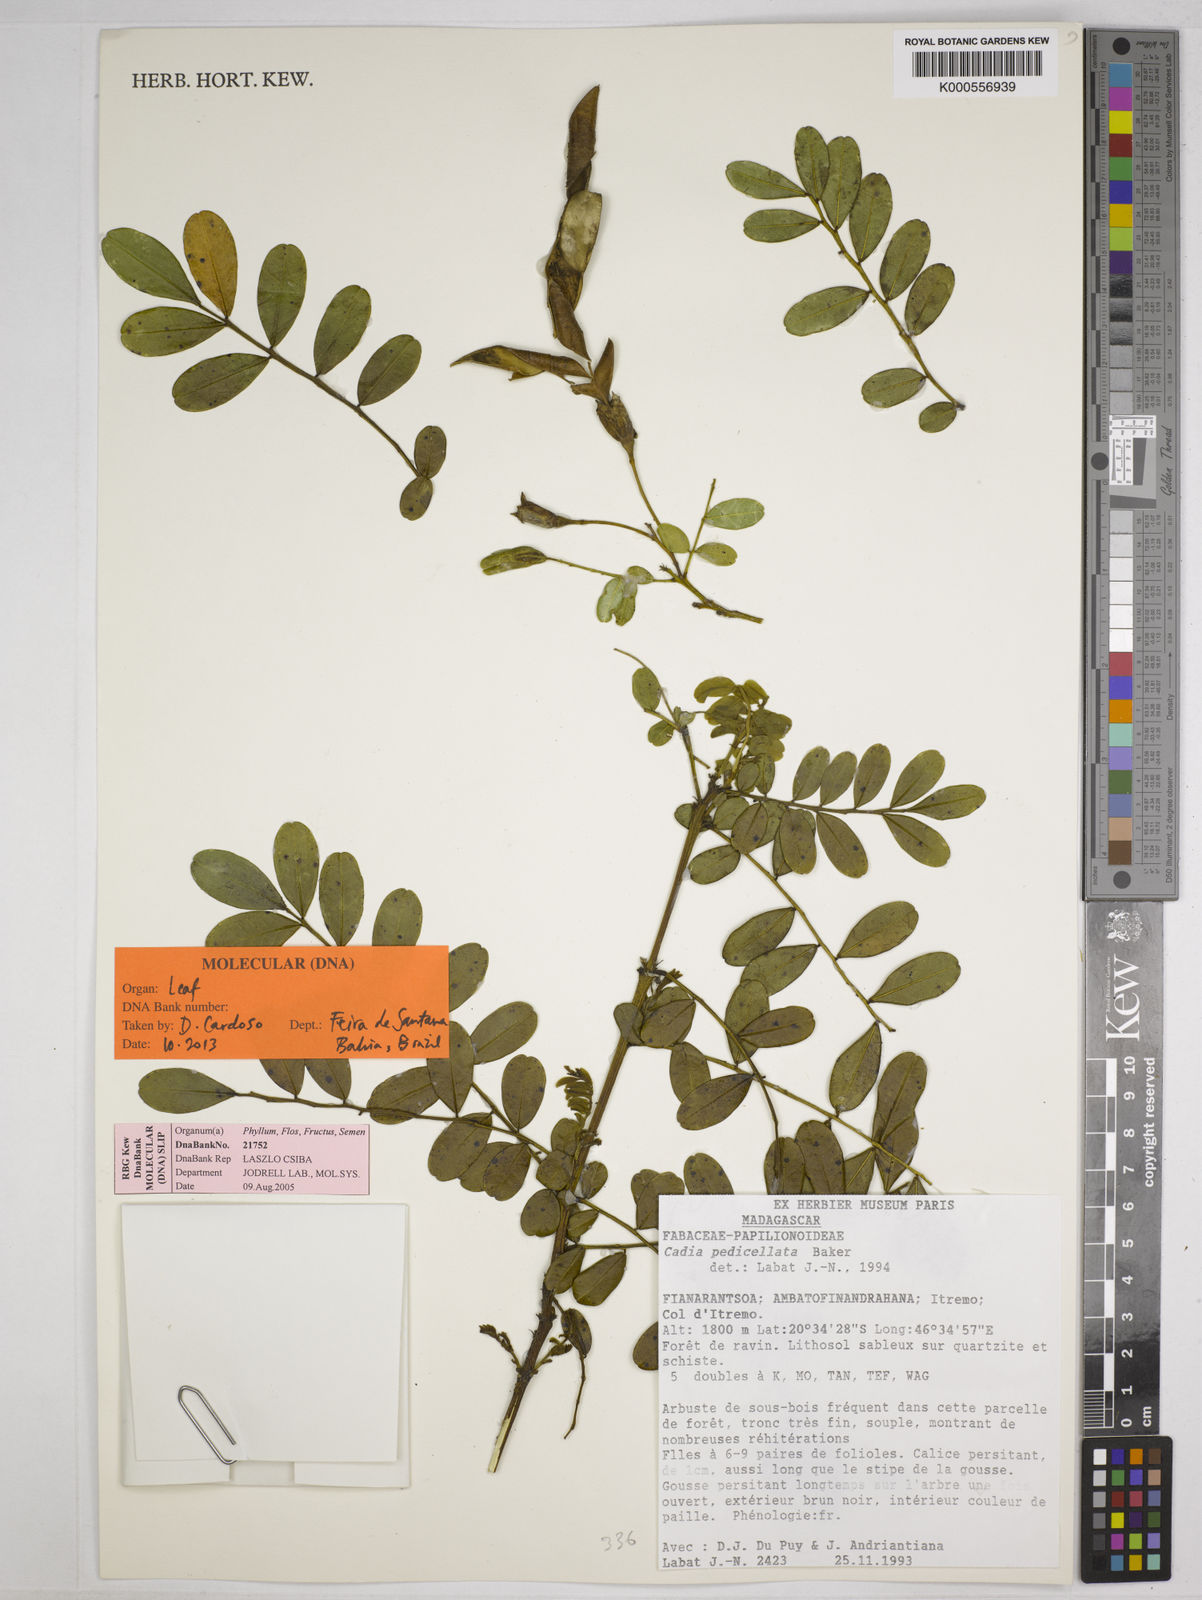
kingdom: Plantae
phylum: Tracheophyta
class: Magnoliopsida
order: Fabales
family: Fabaceae
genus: Cadia
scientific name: Cadia pedicellata
